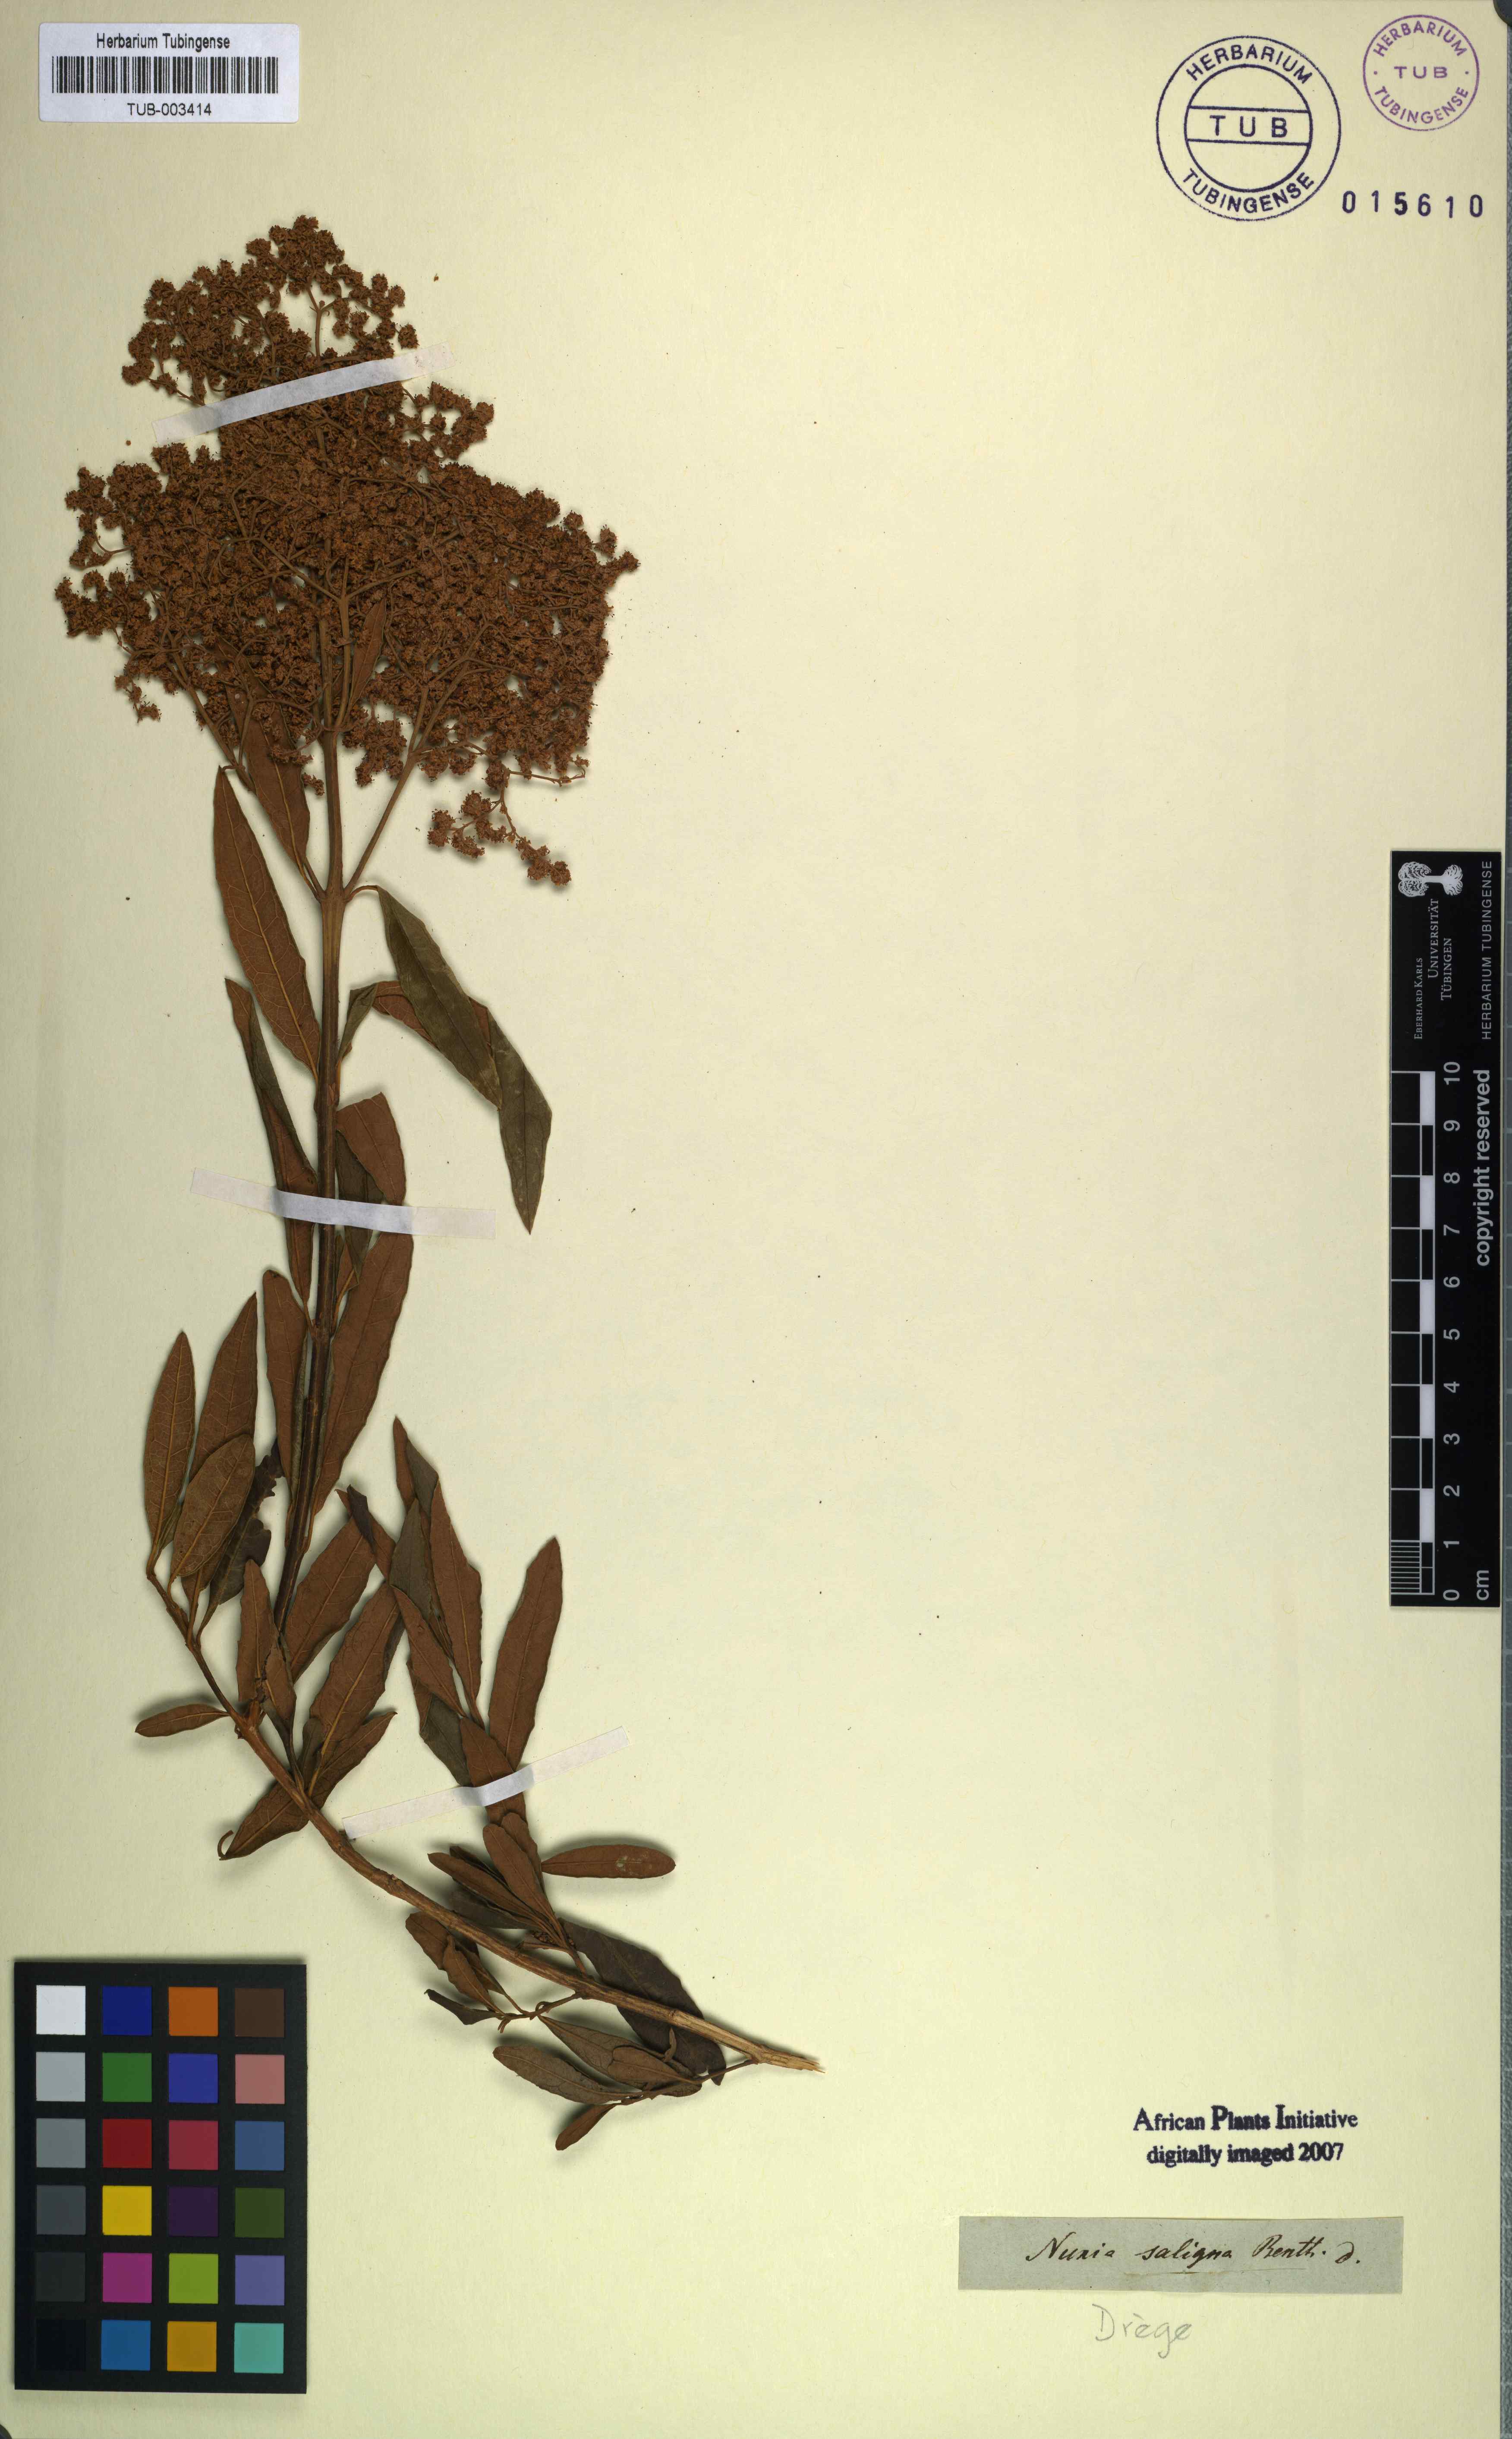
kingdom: Plantae
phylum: Tracheophyta
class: Magnoliopsida
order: Lamiales
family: Scrophulariaceae
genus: Buddleja
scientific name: Buddleja saligna
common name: False olive
